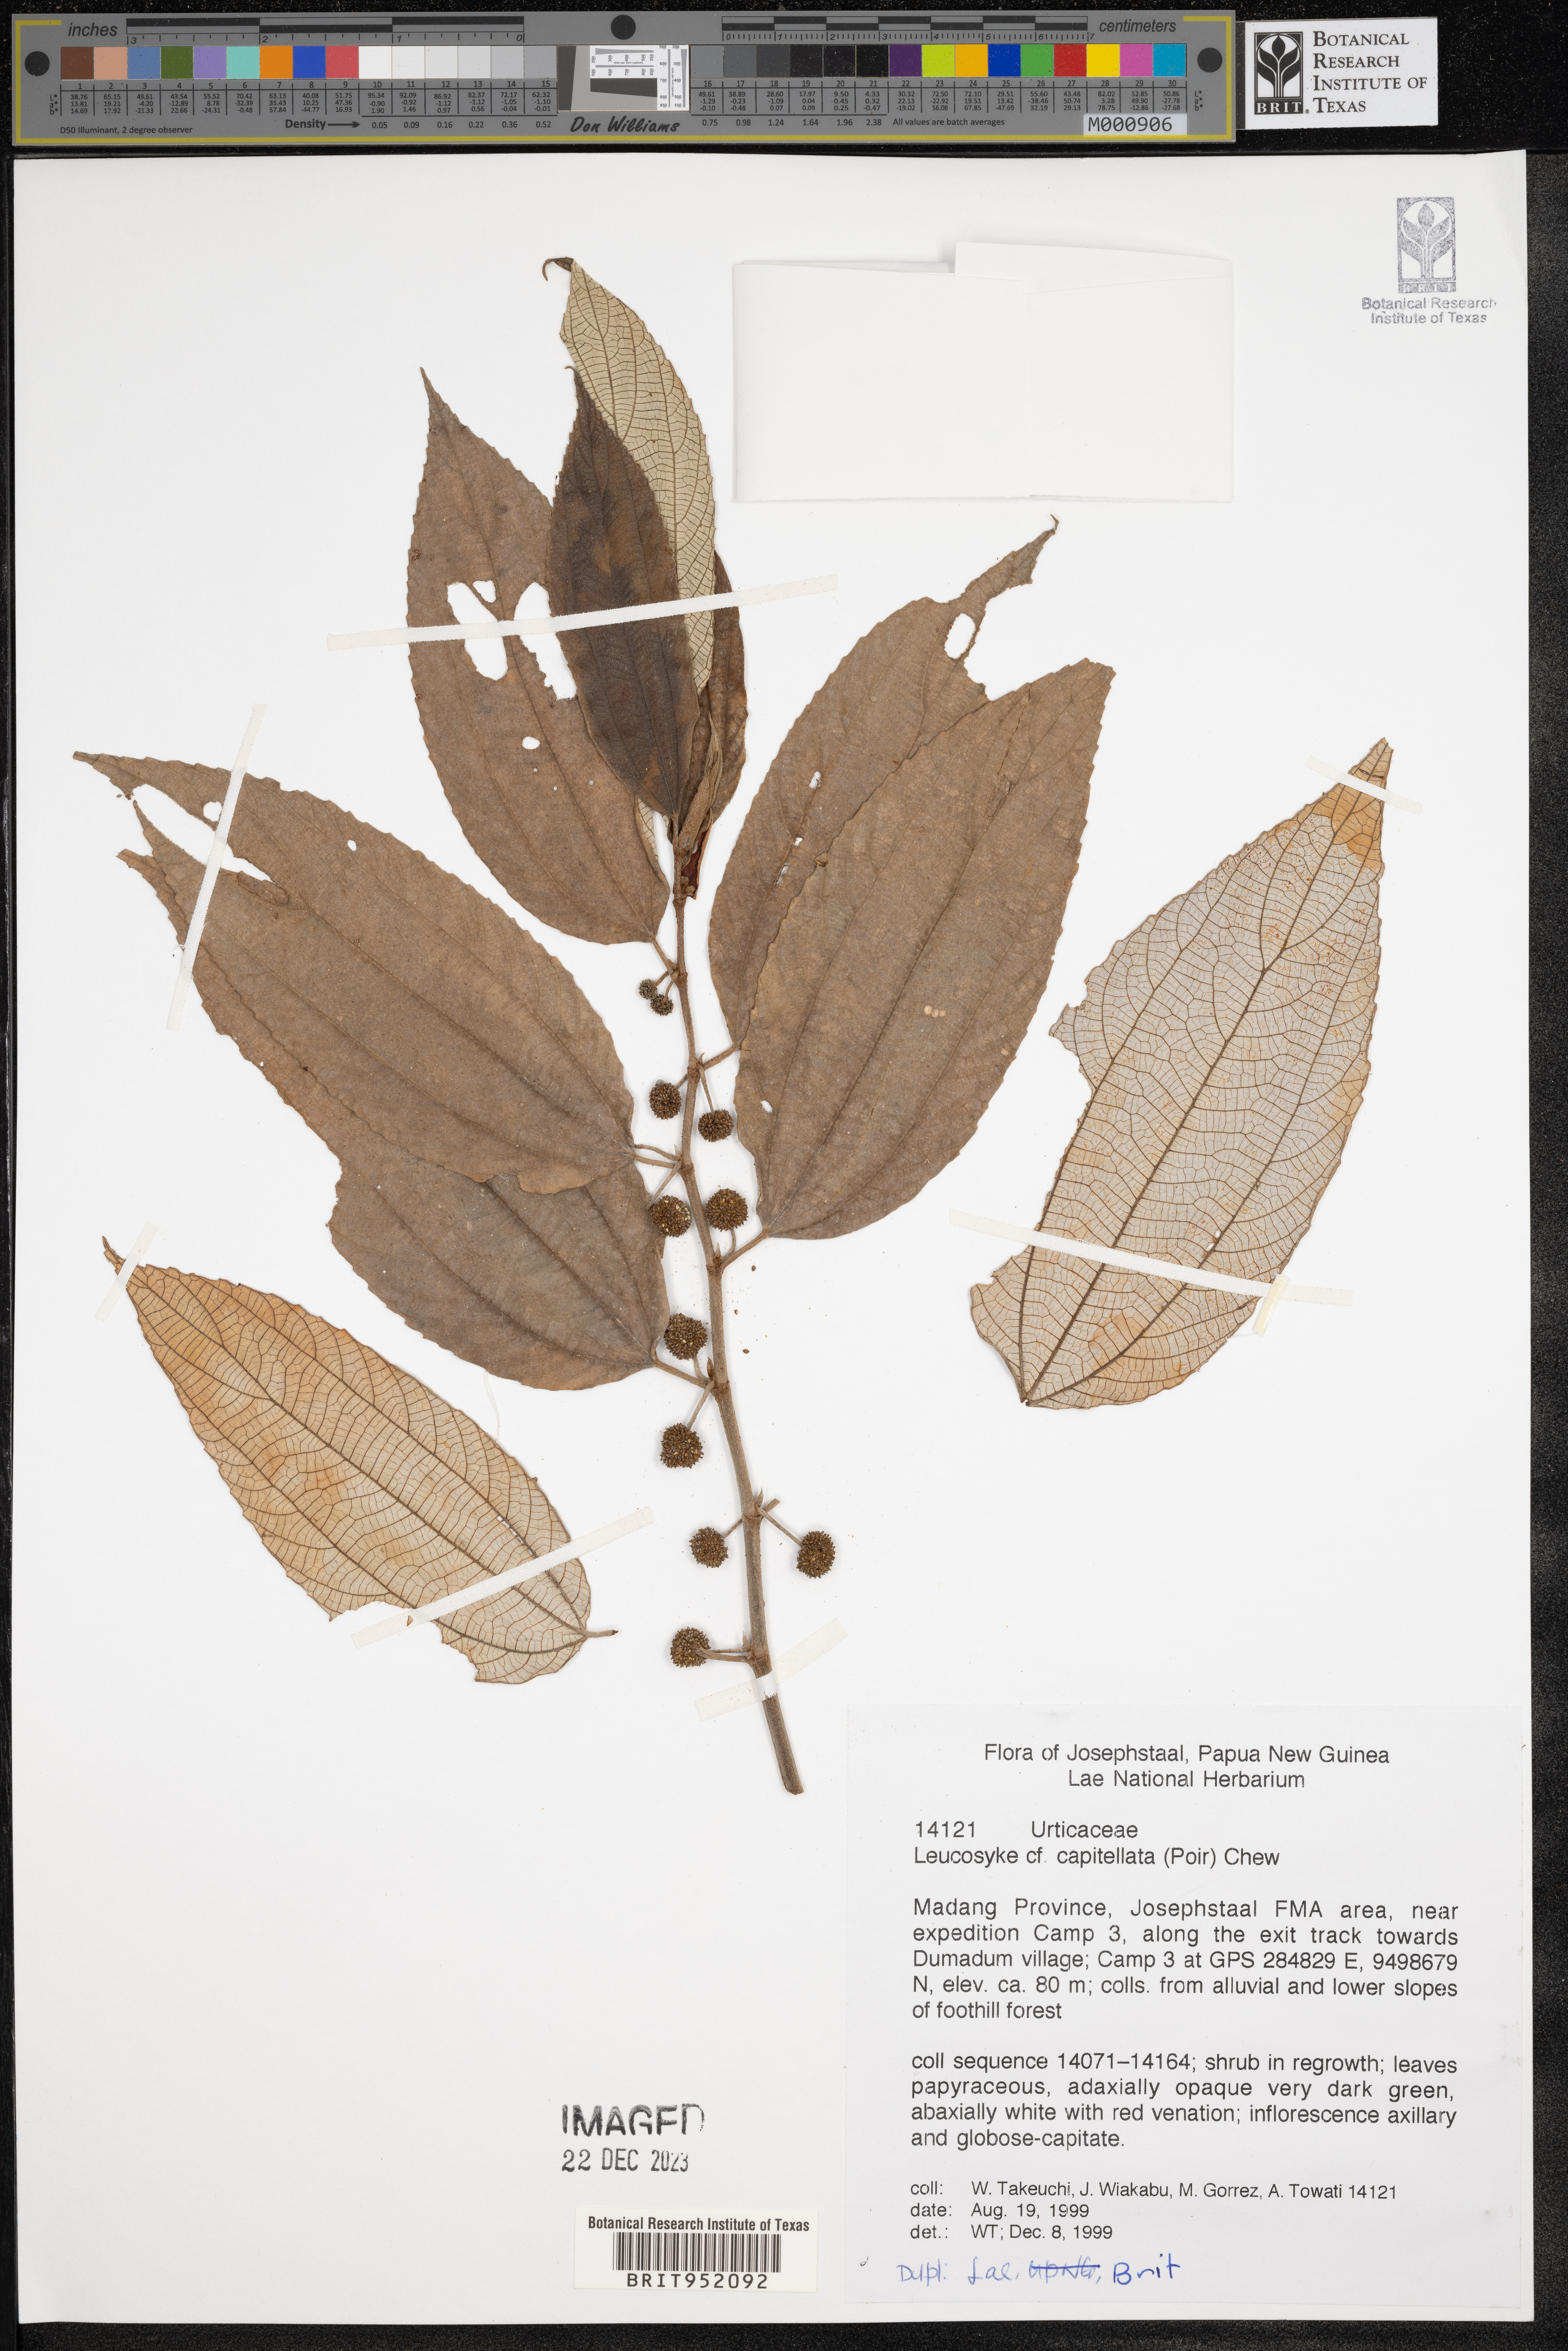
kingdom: Plantae
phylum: Tracheophyta
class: Magnoliopsida
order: Rosales
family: Urticaceae
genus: Leucosyke
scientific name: Leucosyke capitellata
